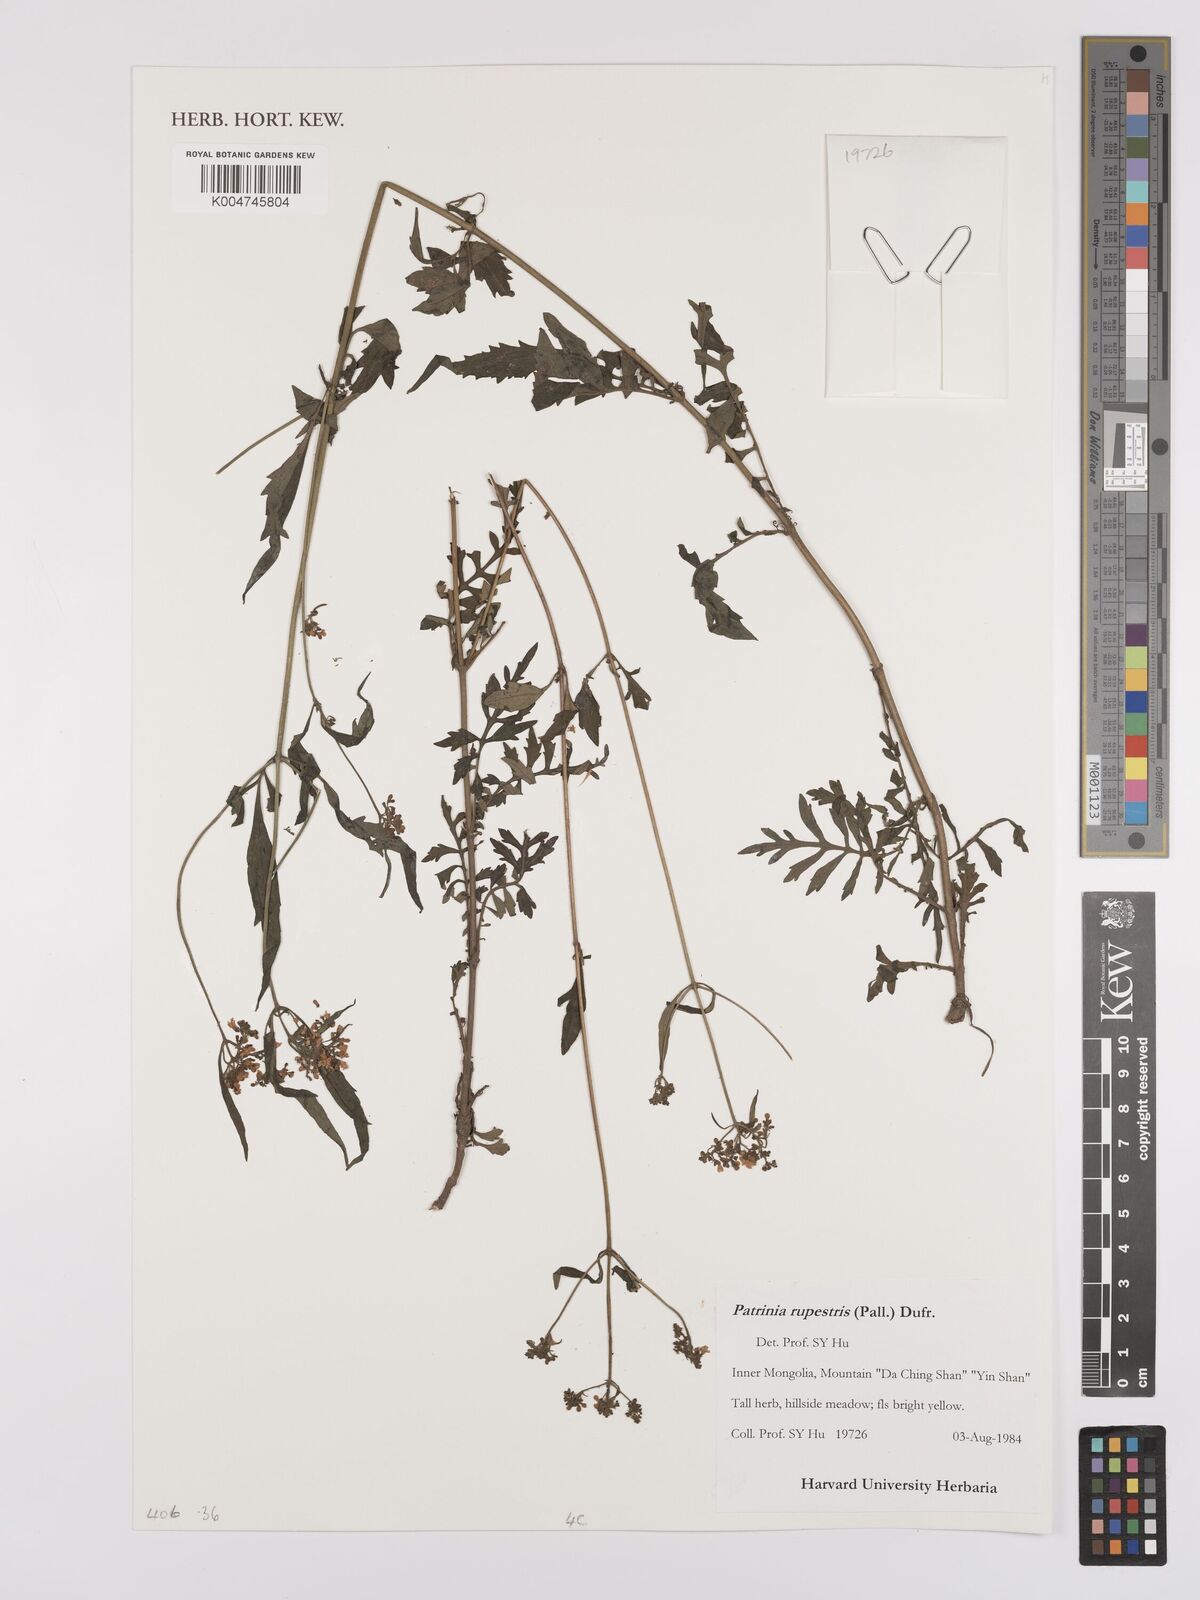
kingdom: Plantae
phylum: Tracheophyta
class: Magnoliopsida
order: Dipsacales
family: Caprifoliaceae
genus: Patrinia
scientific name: Patrinia rupestris
